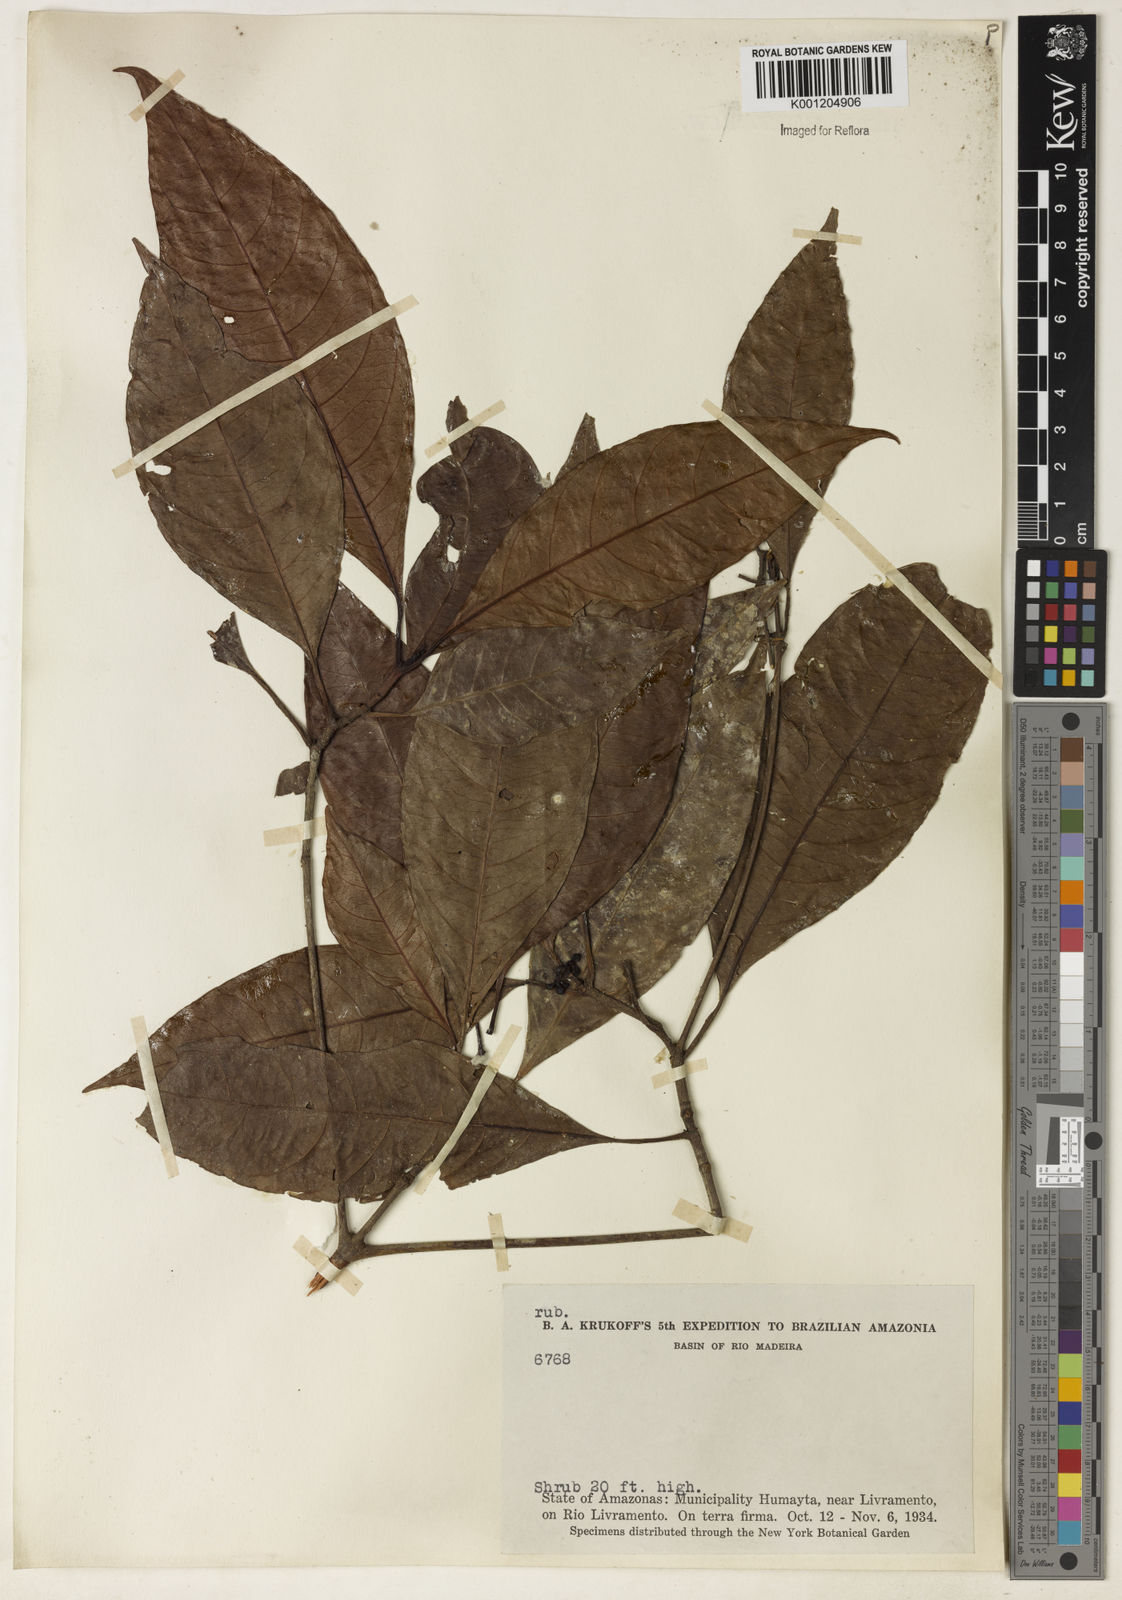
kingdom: Plantae
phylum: Tracheophyta
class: Magnoliopsida
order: Gentianales
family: Rubiaceae
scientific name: Rubiaceae
